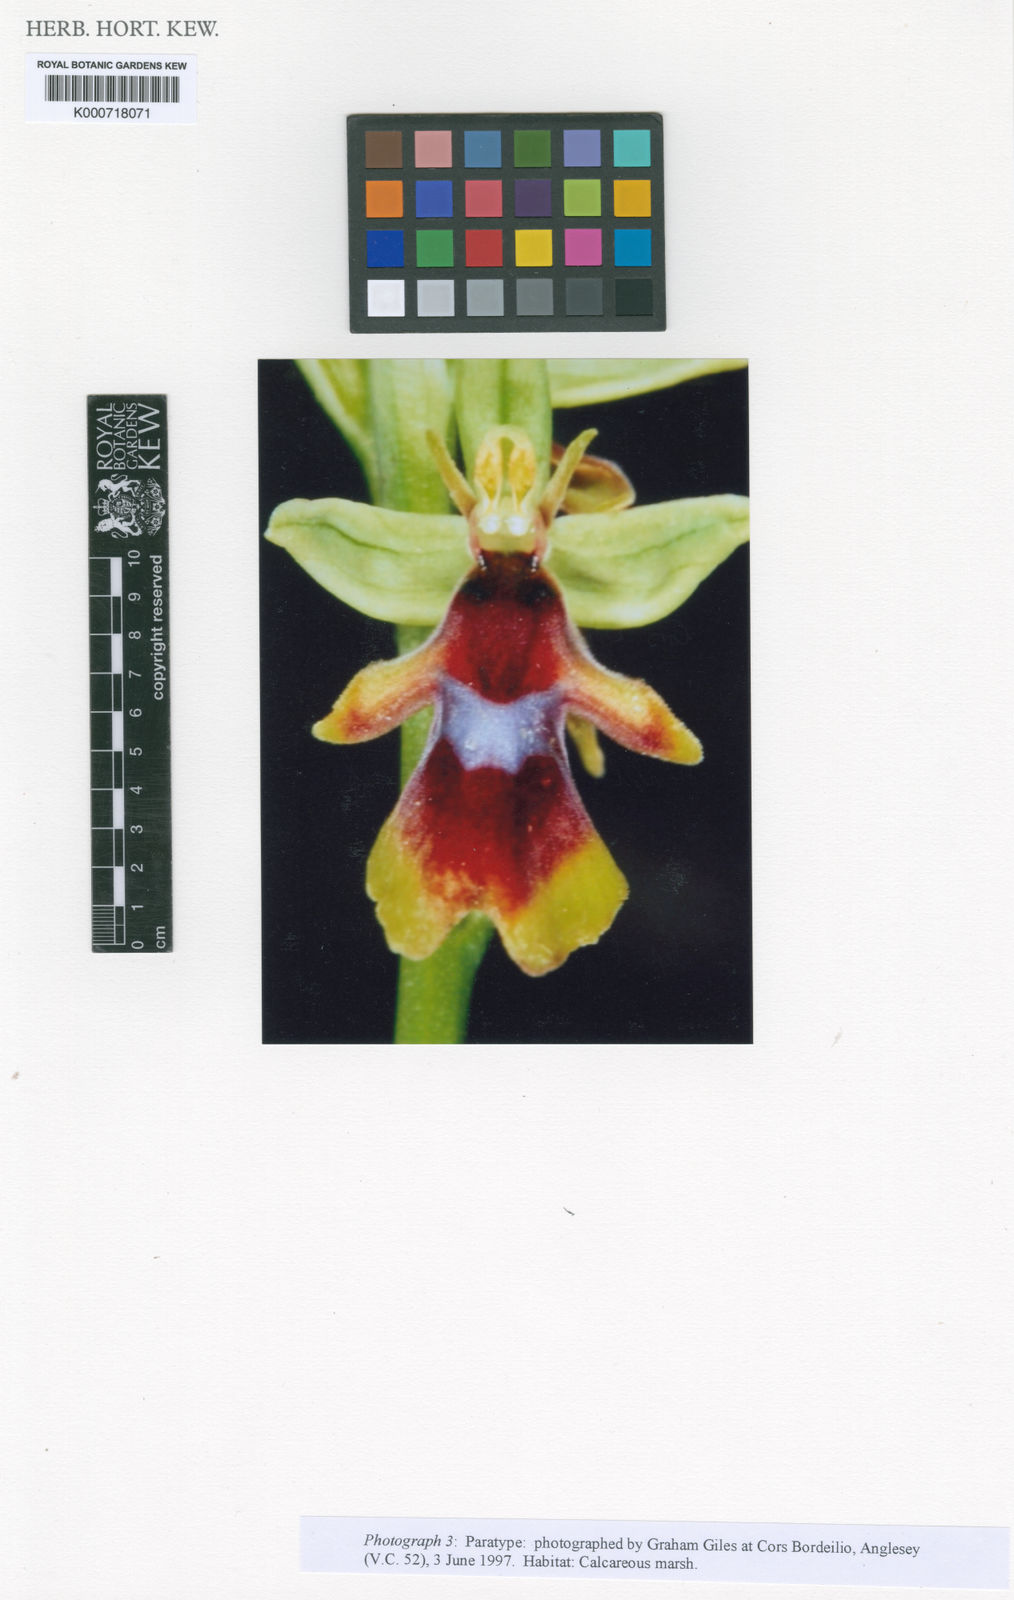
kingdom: Plantae
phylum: Tracheophyta
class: Liliopsida
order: Asparagales
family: Orchidaceae
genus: Ophrys
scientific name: Ophrys insectifera
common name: Fly orchid
